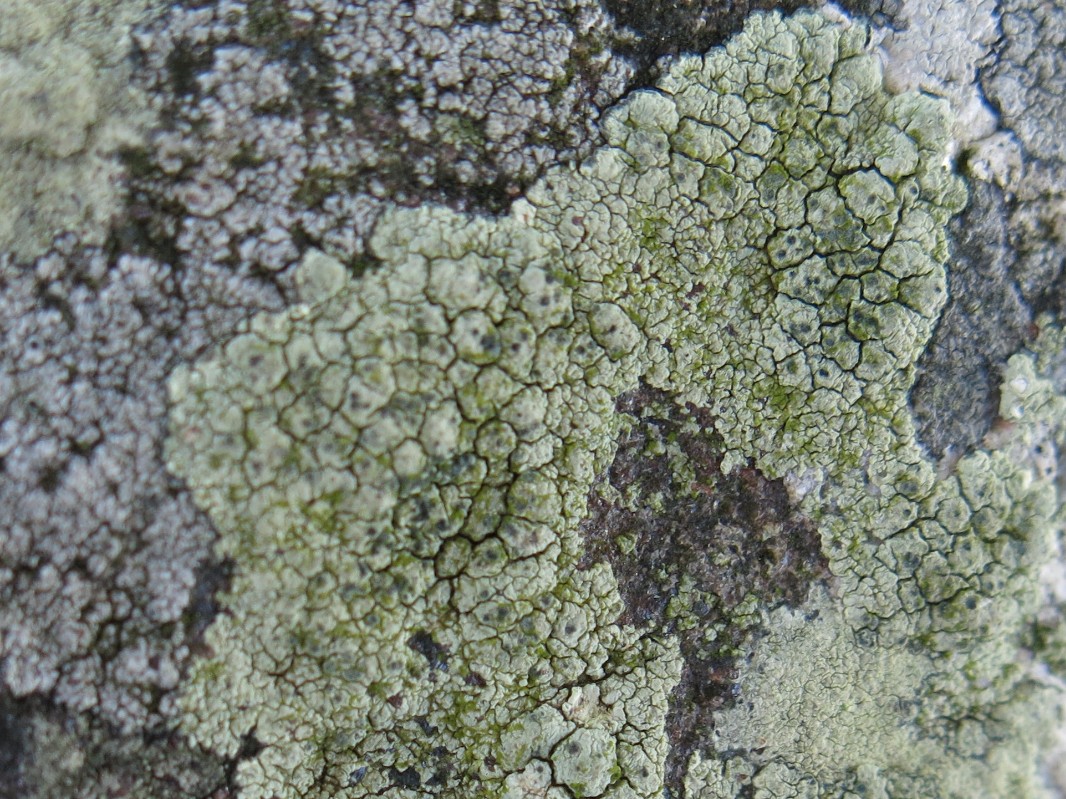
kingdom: Fungi
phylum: Ascomycota
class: Lecanoromycetes
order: Lecanorales
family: Lecanoraceae
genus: Glaucomaria
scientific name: Glaucomaria sulphurea
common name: svovlgul kantskivelav
